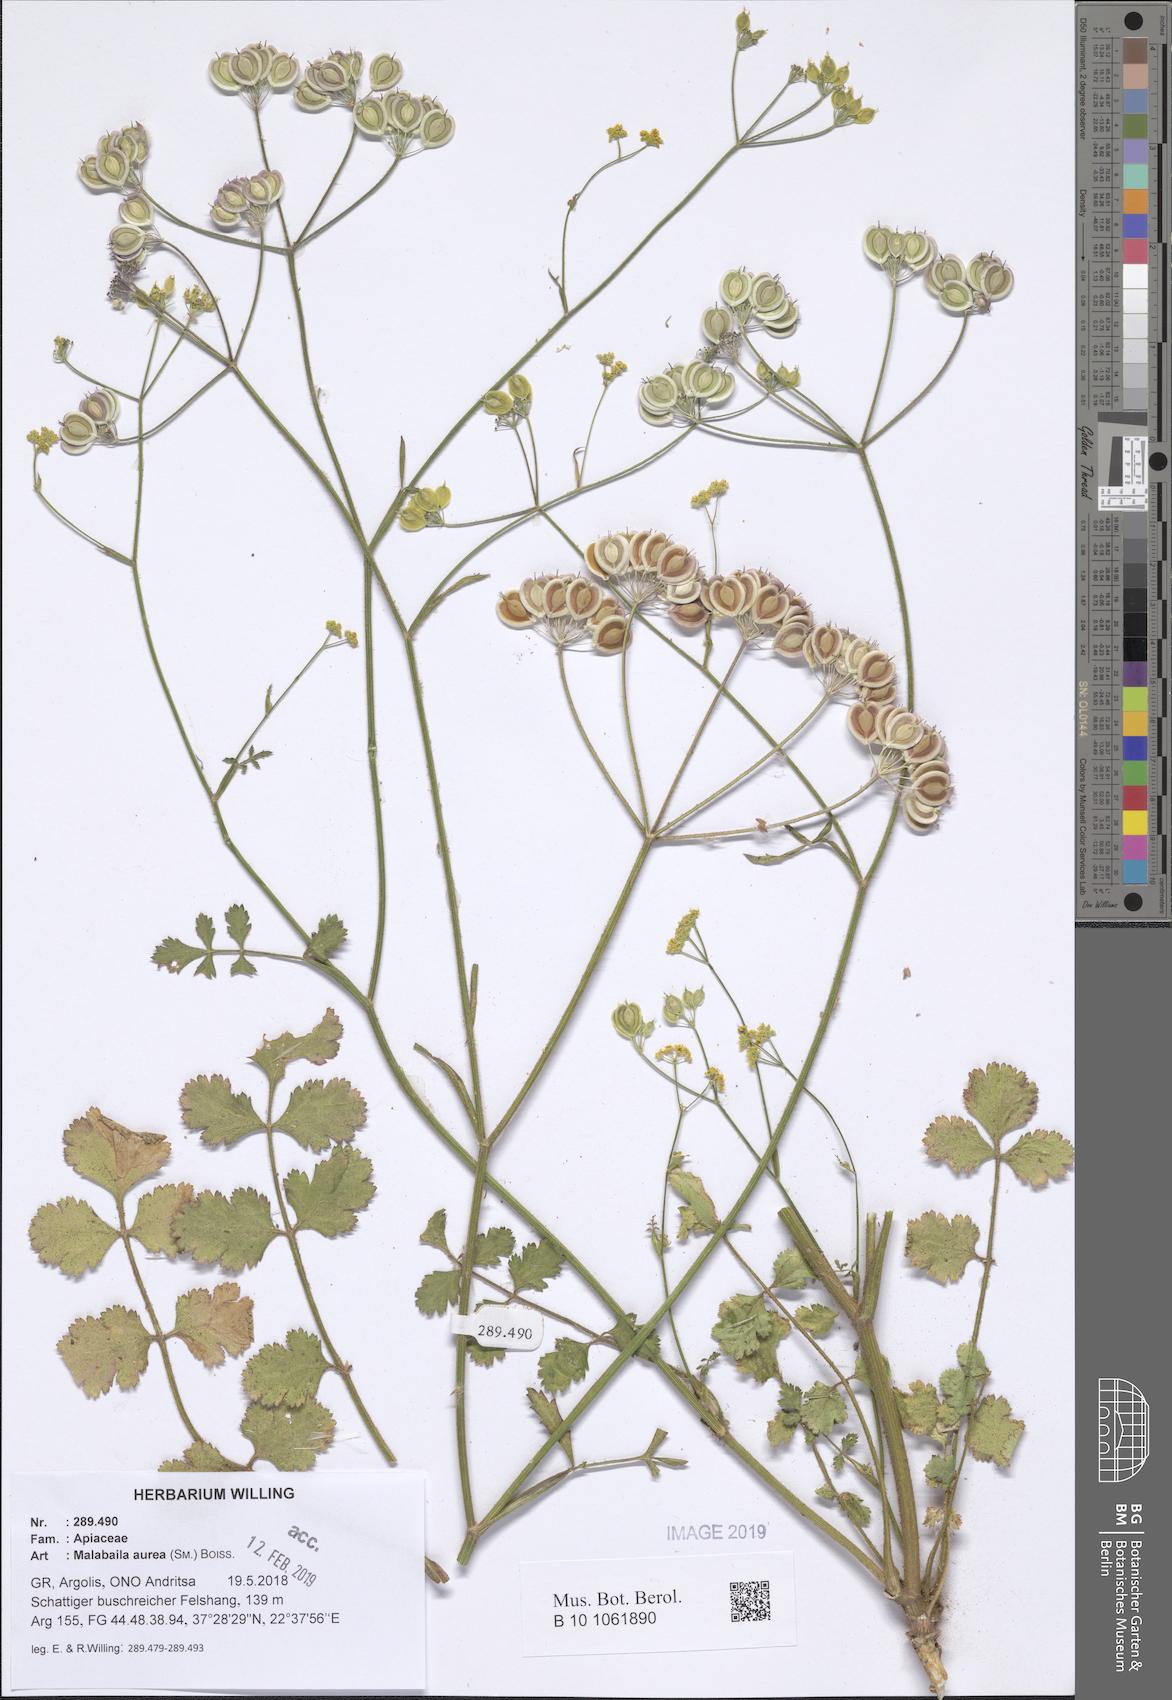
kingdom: Plantae
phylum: Tracheophyta
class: Magnoliopsida
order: Apiales
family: Apiaceae
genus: Leiotulus
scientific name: Leiotulus aureus
